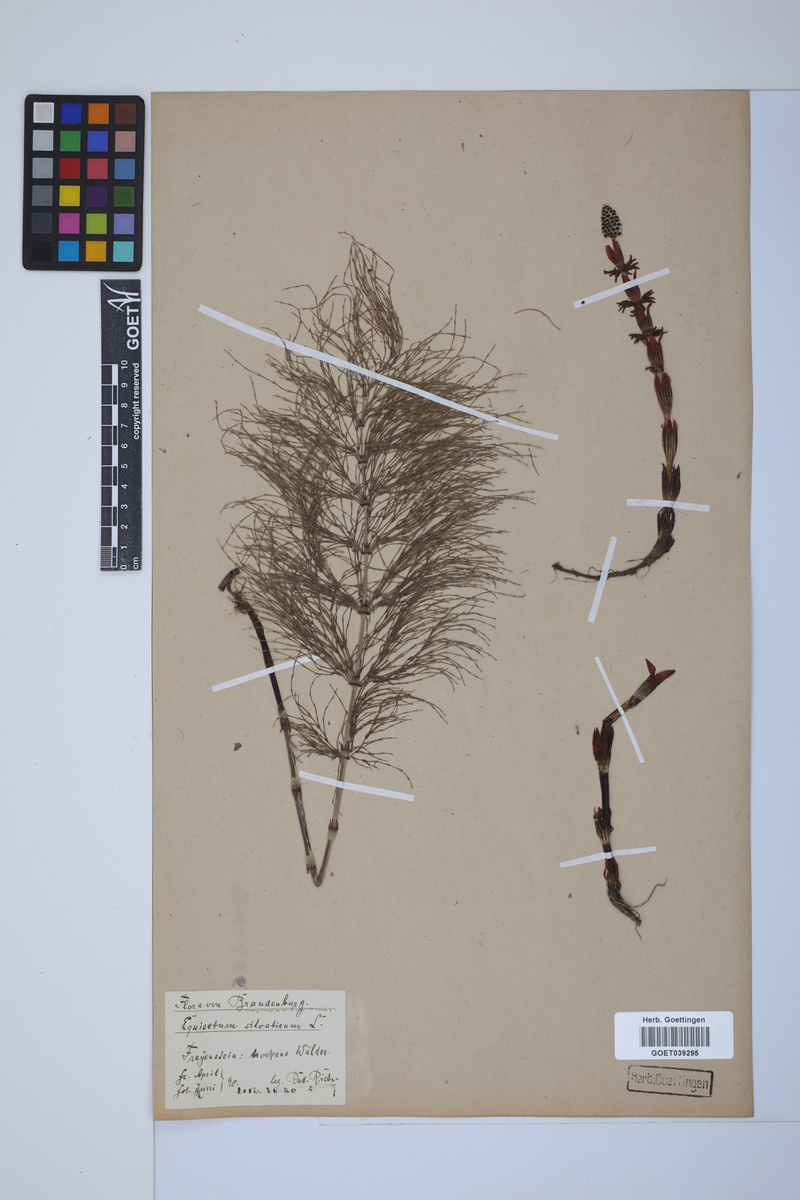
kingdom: Plantae
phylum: Tracheophyta
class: Polypodiopsida
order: Equisetales
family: Equisetaceae
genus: Equisetum
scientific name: Equisetum sylvaticum
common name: Wood horsetail
